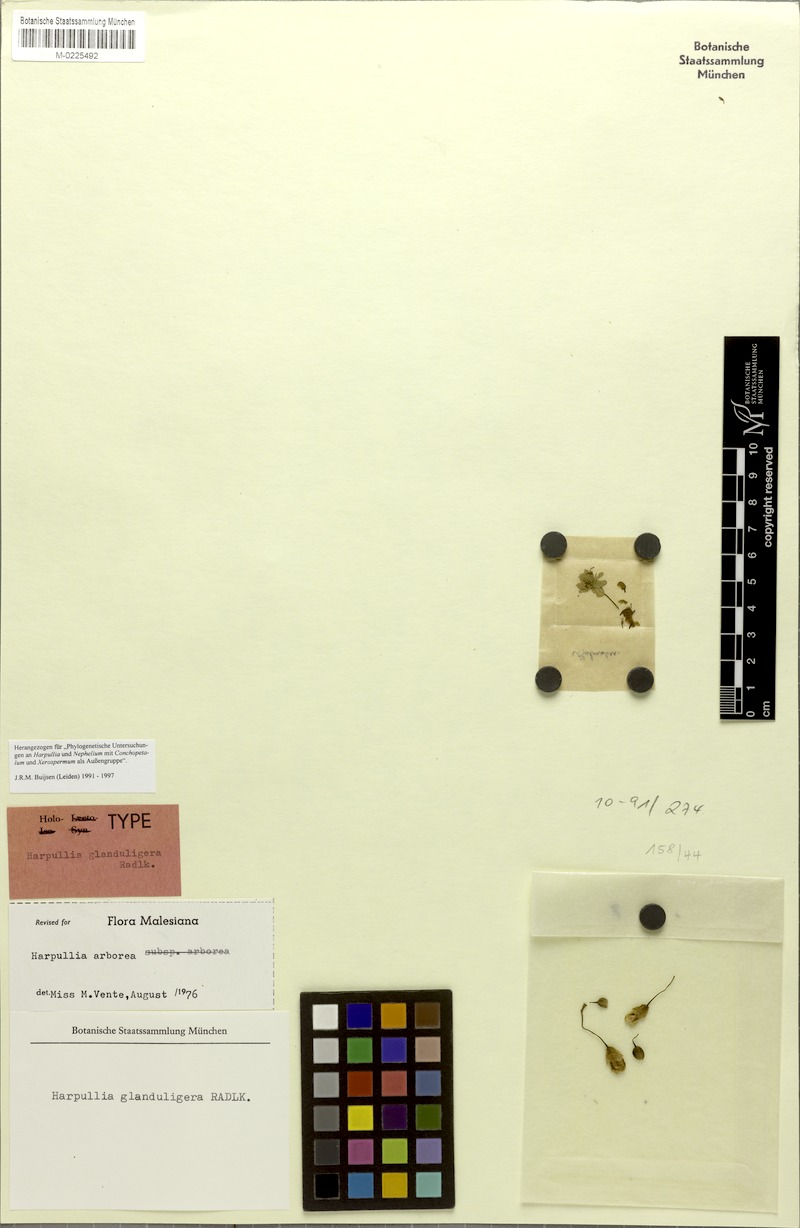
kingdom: Plantae
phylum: Tracheophyta
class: Magnoliopsida
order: Sapindales
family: Sapindaceae
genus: Harpullia
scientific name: Harpullia arborea
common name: Tulip-wood tree
